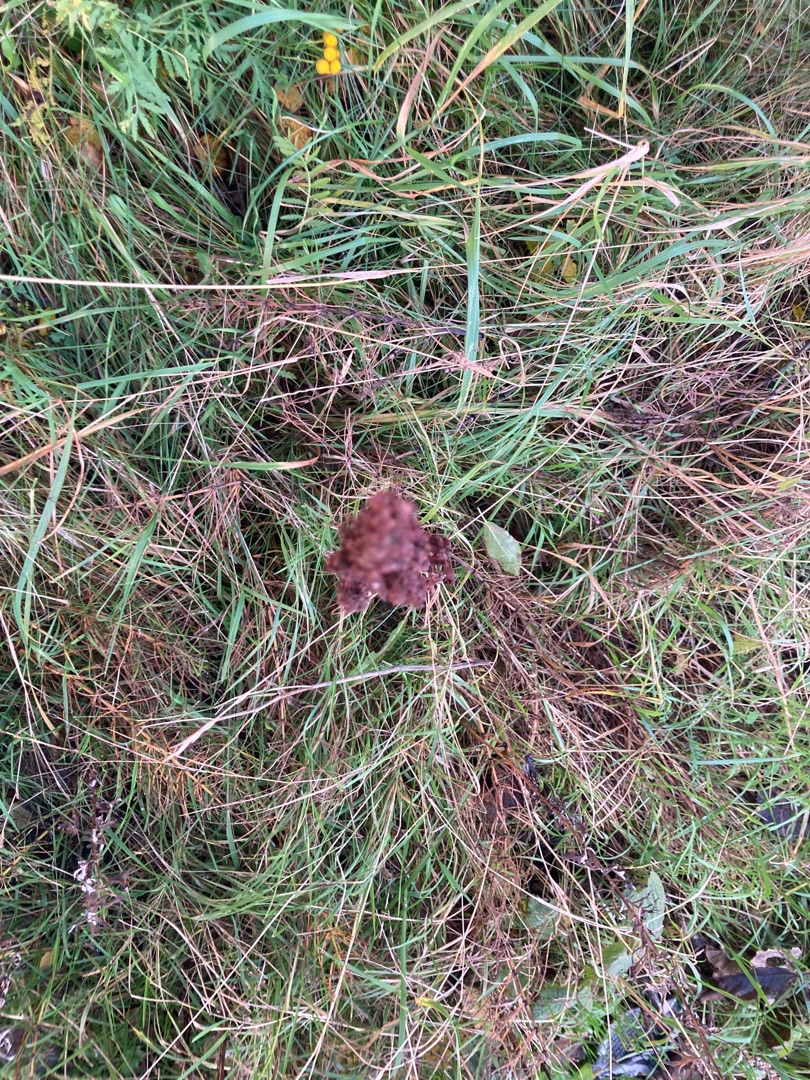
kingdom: Plantae
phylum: Tracheophyta
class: Magnoliopsida
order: Caryophyllales
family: Polygonaceae
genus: Rumex
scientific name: Rumex crispus
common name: Kruset skræppe
